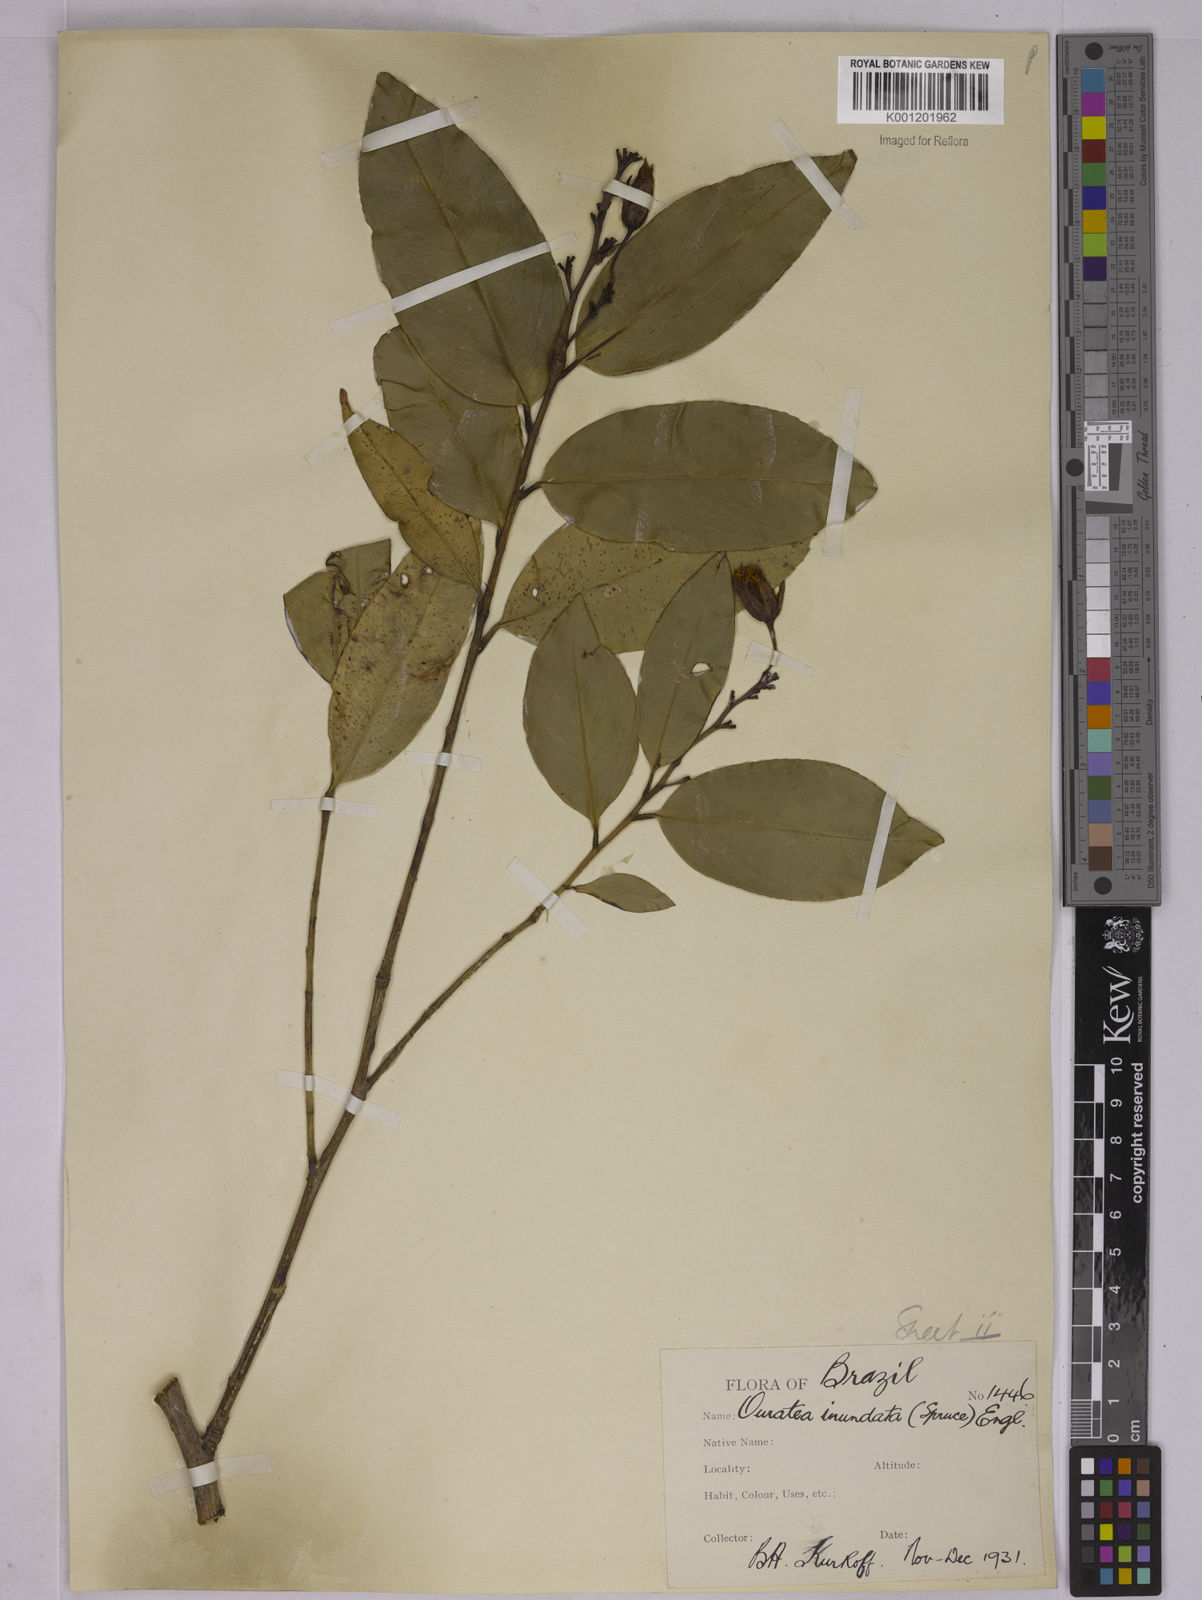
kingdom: Plantae
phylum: Tracheophyta
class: Magnoliopsida
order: Malpighiales
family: Ochnaceae
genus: Ouratea
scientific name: Ouratea inundata
